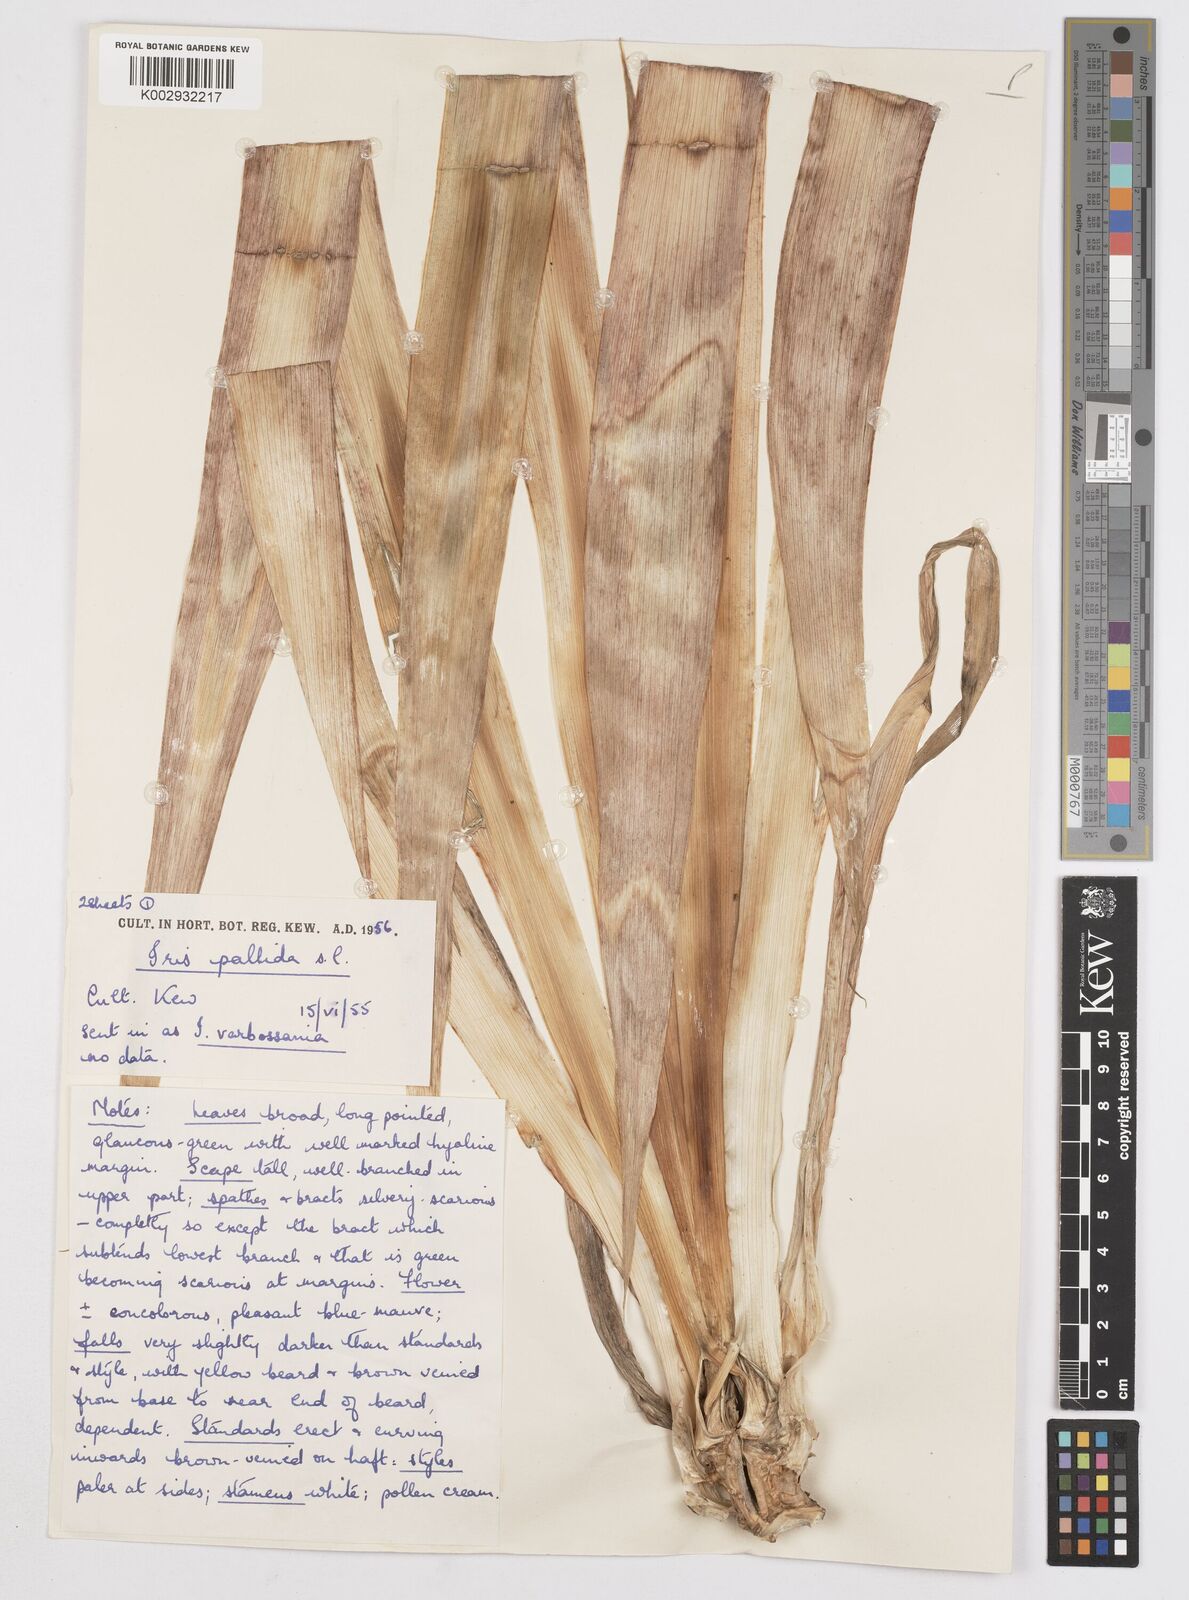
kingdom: Plantae
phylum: Tracheophyta
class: Liliopsida
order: Asparagales
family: Iridaceae
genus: Iris
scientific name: Iris halophila
